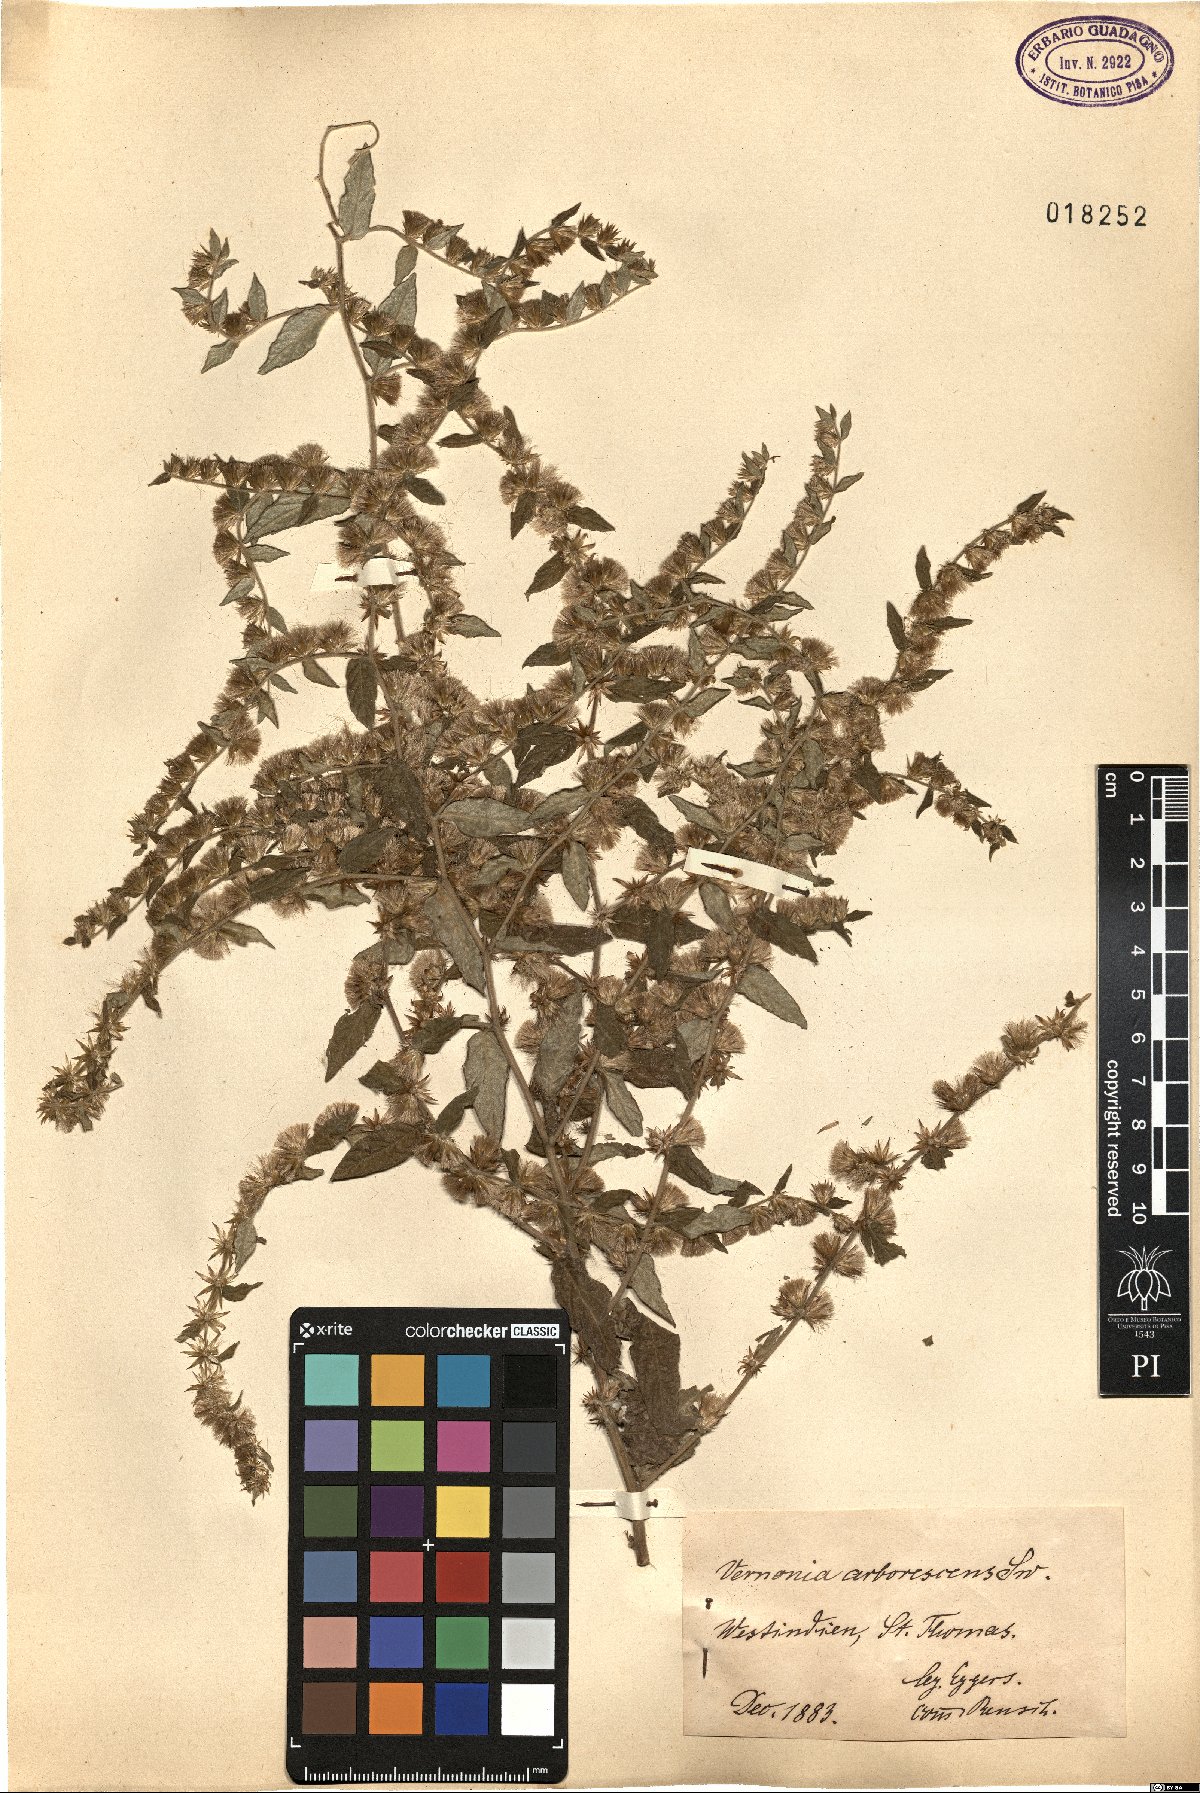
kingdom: Plantae
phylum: Tracheophyta
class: Magnoliopsida
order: Asterales
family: Asteraceae
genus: Lepidaploa
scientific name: Lepidaploa arborescens
